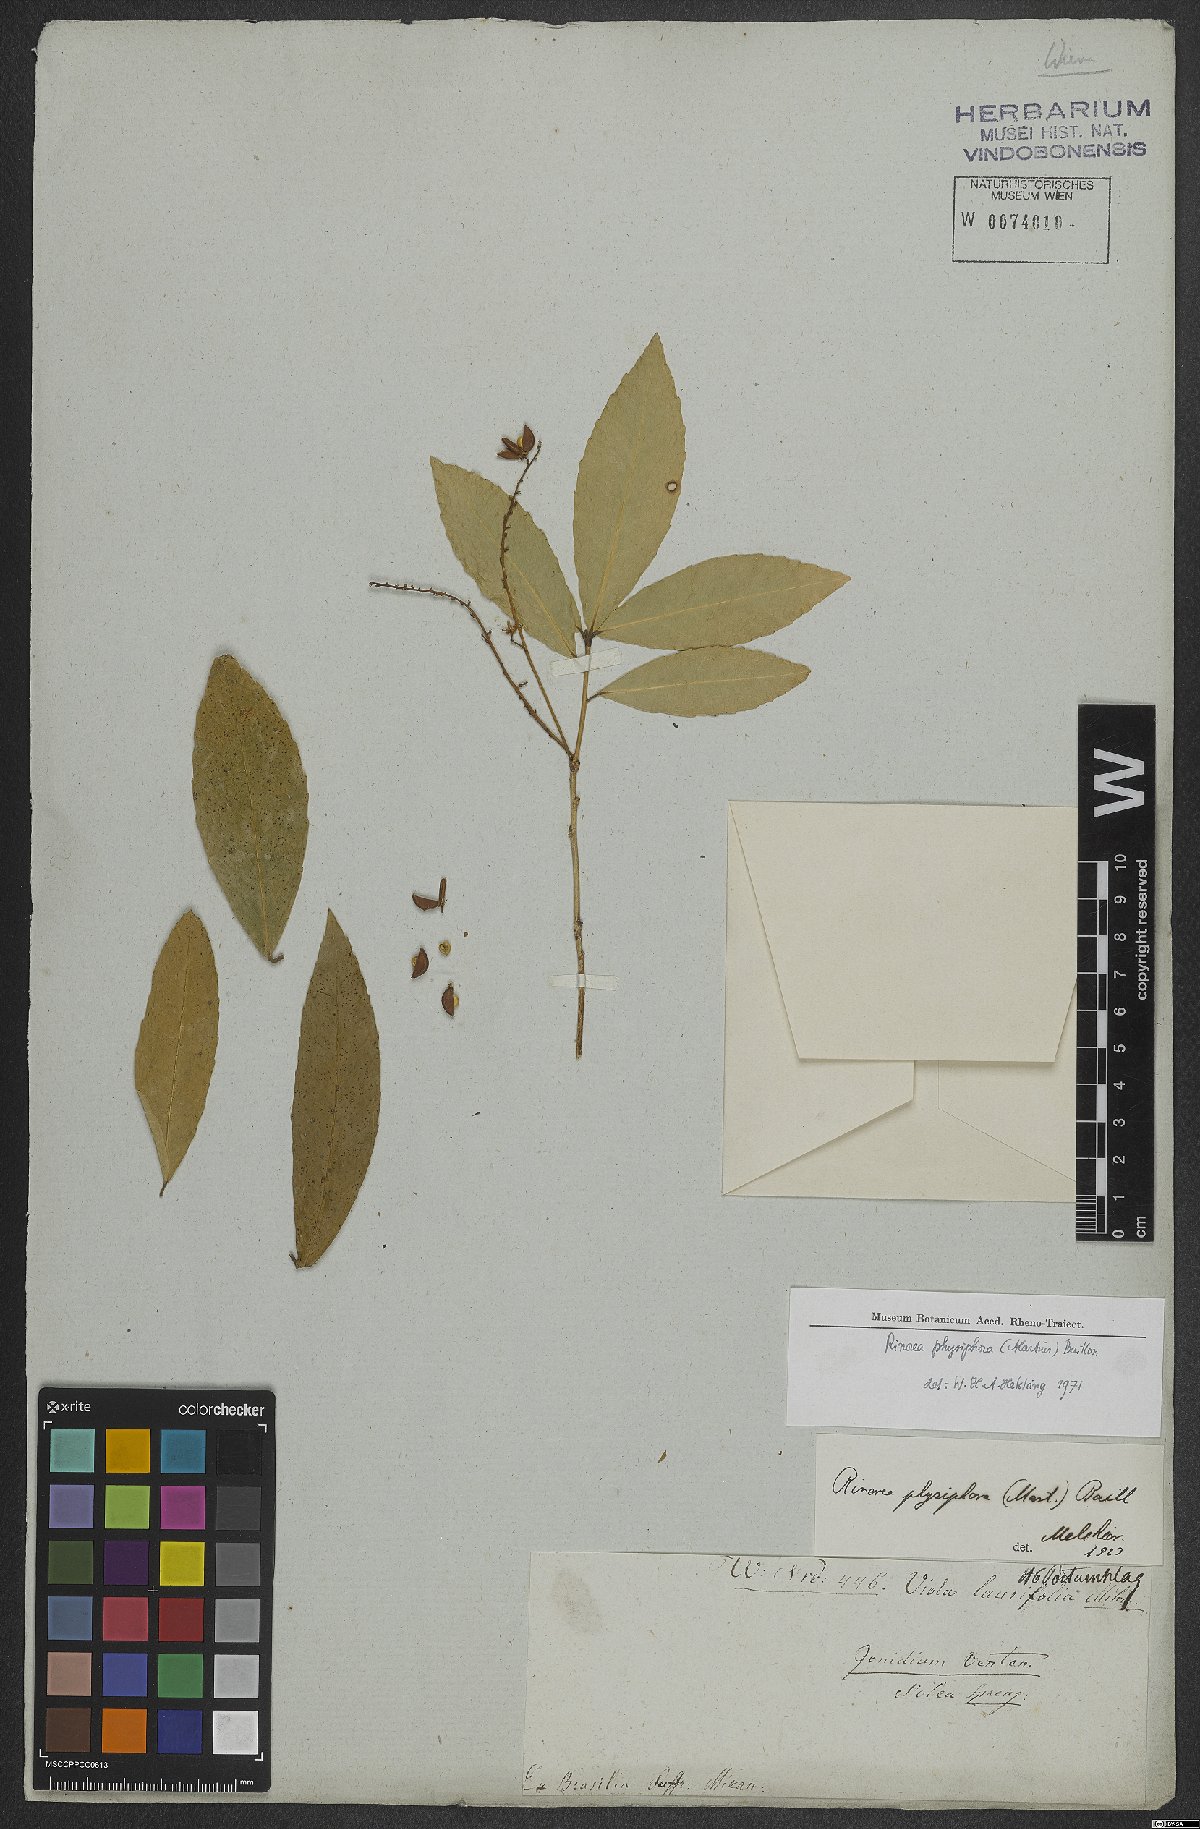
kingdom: Plantae
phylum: Tracheophyta
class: Magnoliopsida
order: Malpighiales
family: Violaceae
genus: Rinorea
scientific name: Rinorea laevigata
